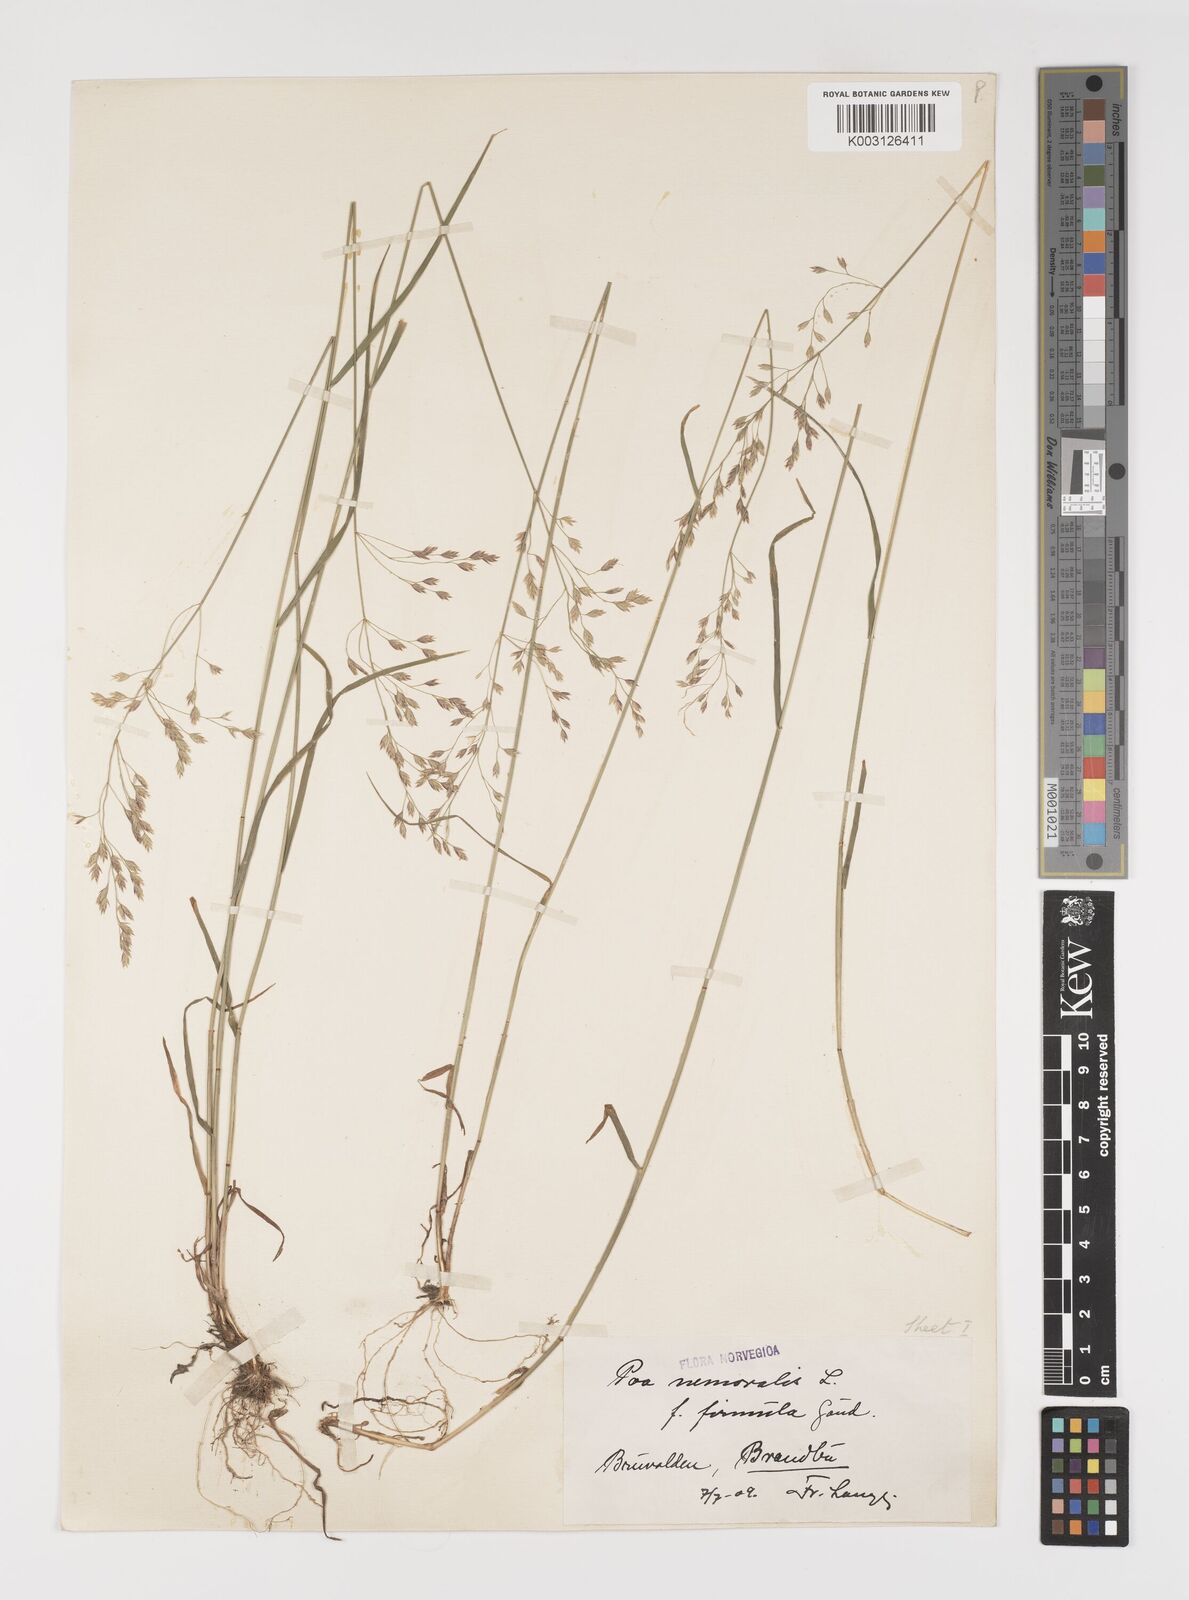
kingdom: Plantae
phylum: Tracheophyta
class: Liliopsida
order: Poales
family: Poaceae
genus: Poa
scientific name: Poa nemoralis
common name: Wood bluegrass
